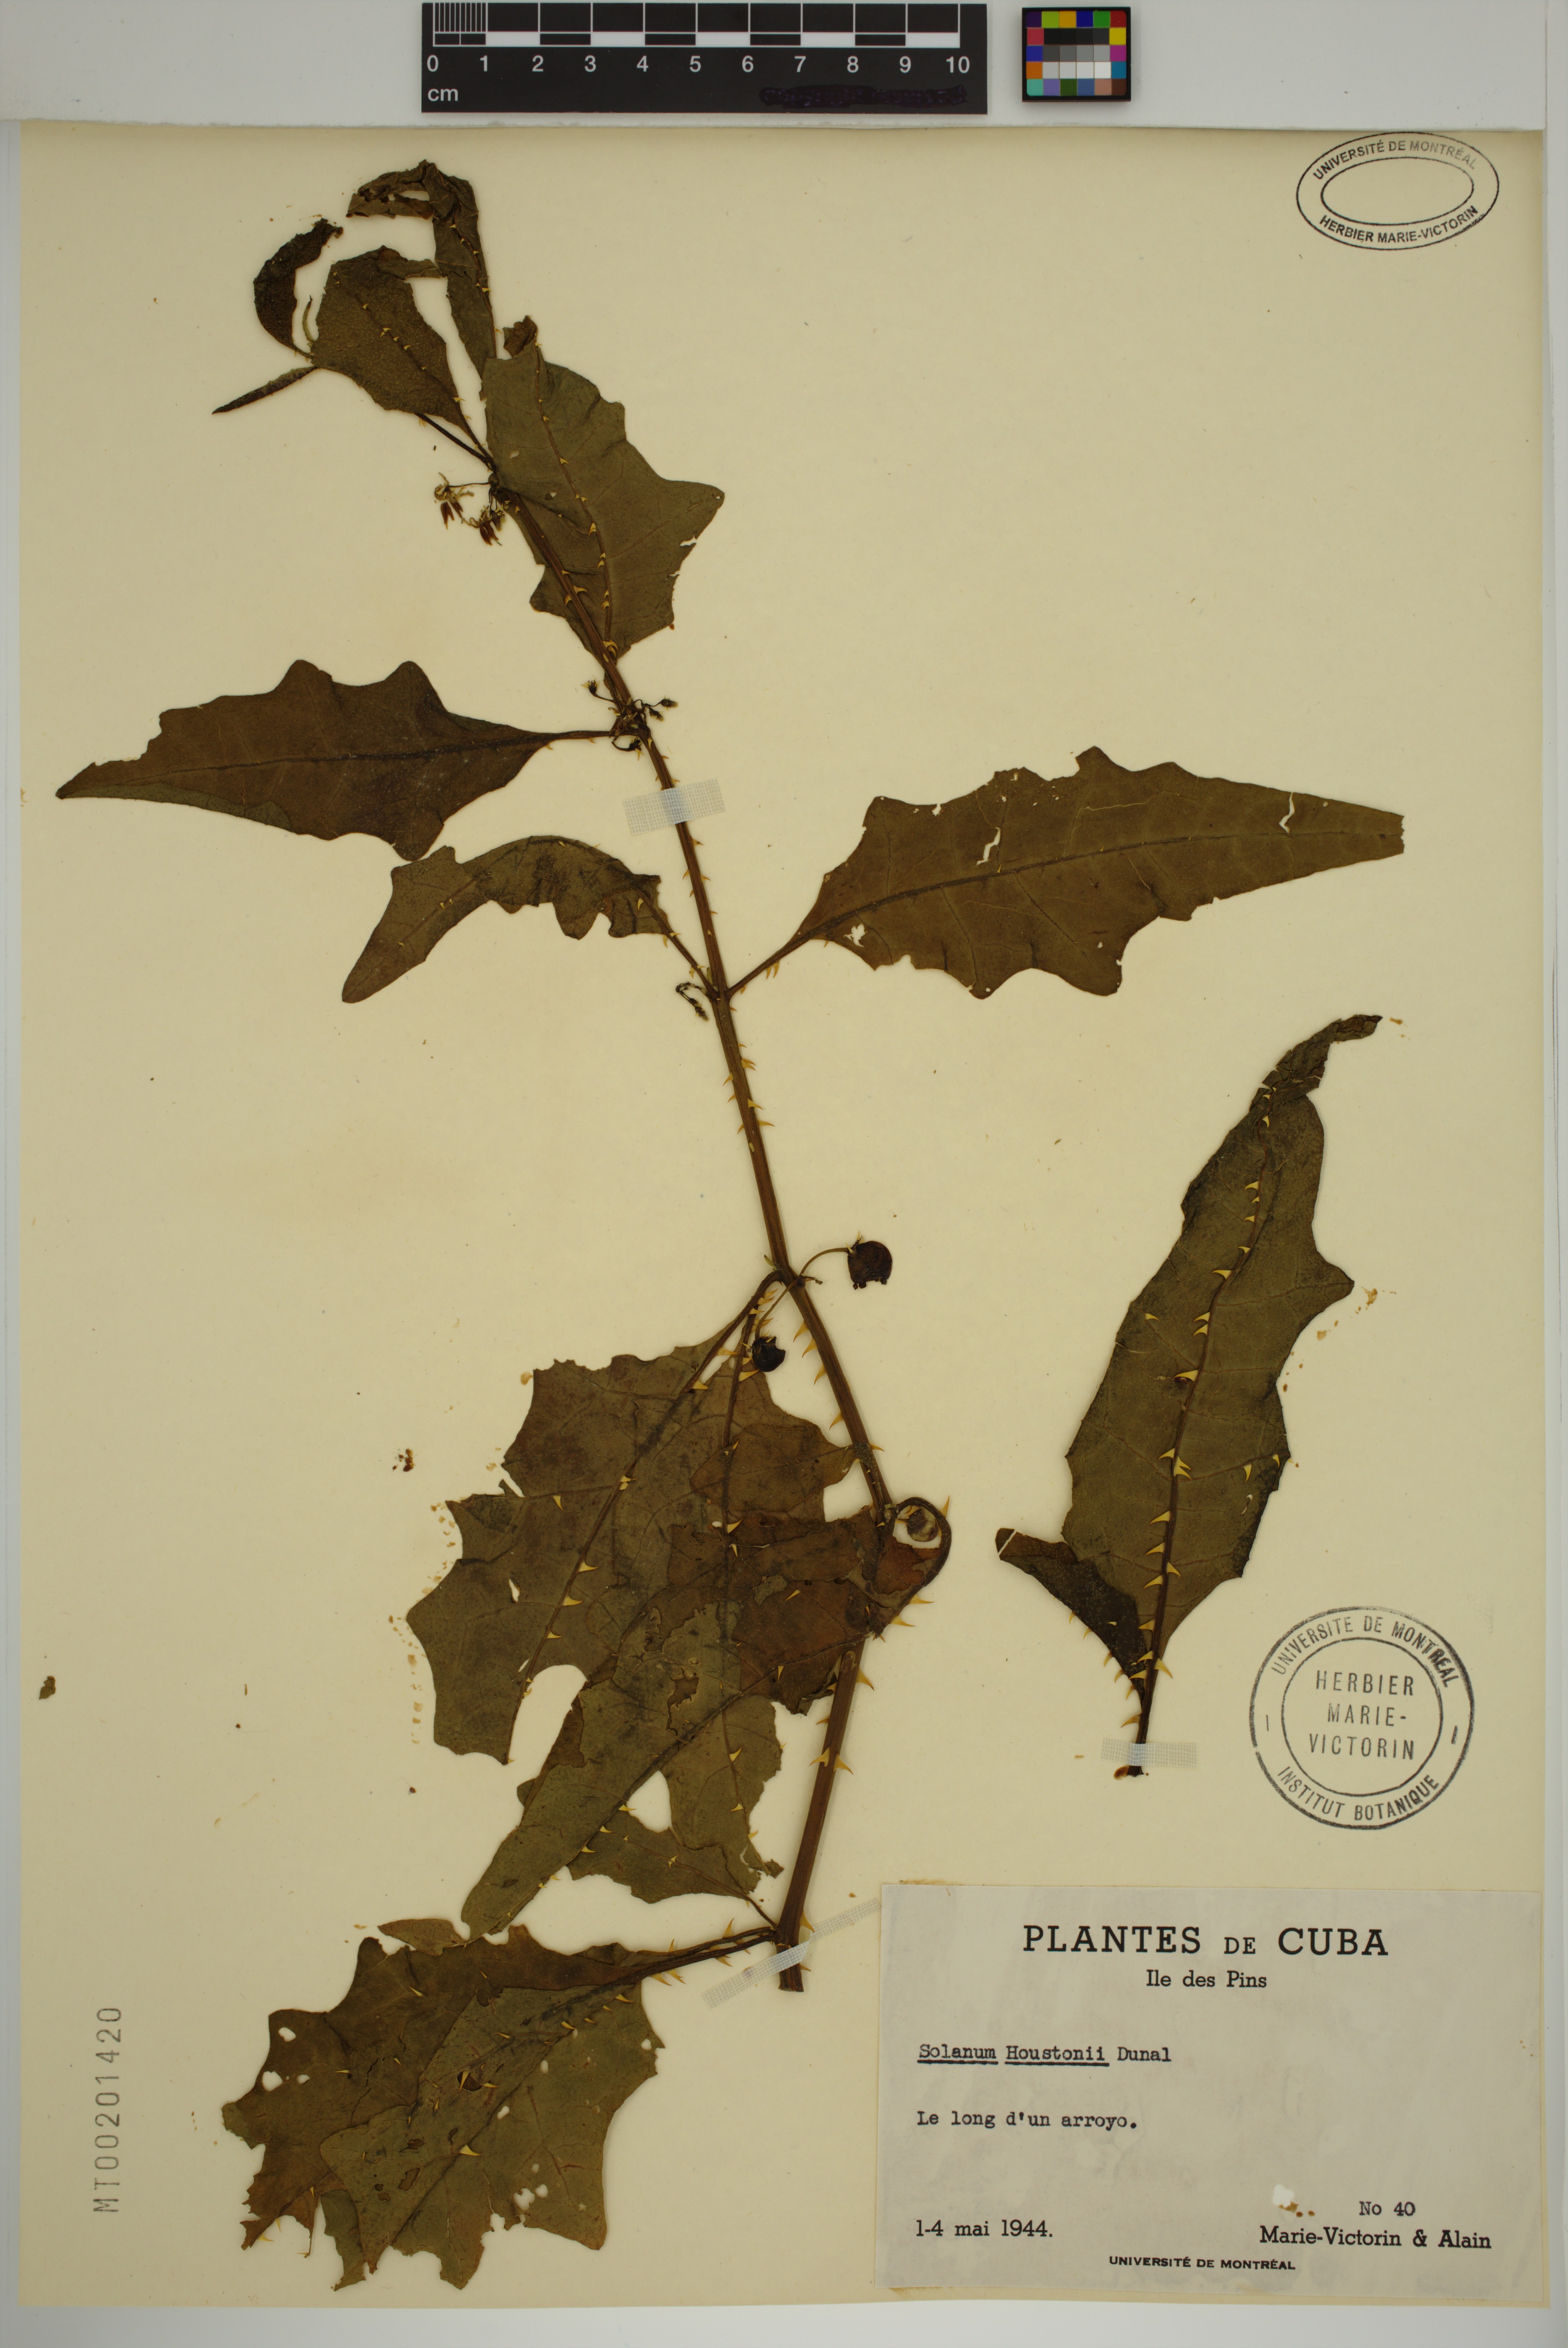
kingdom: Plantae
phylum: Tracheophyta
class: Magnoliopsida
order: Solanales
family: Solanaceae
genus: Solanum
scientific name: Solanum tampicense
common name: Scrambling nightshade
